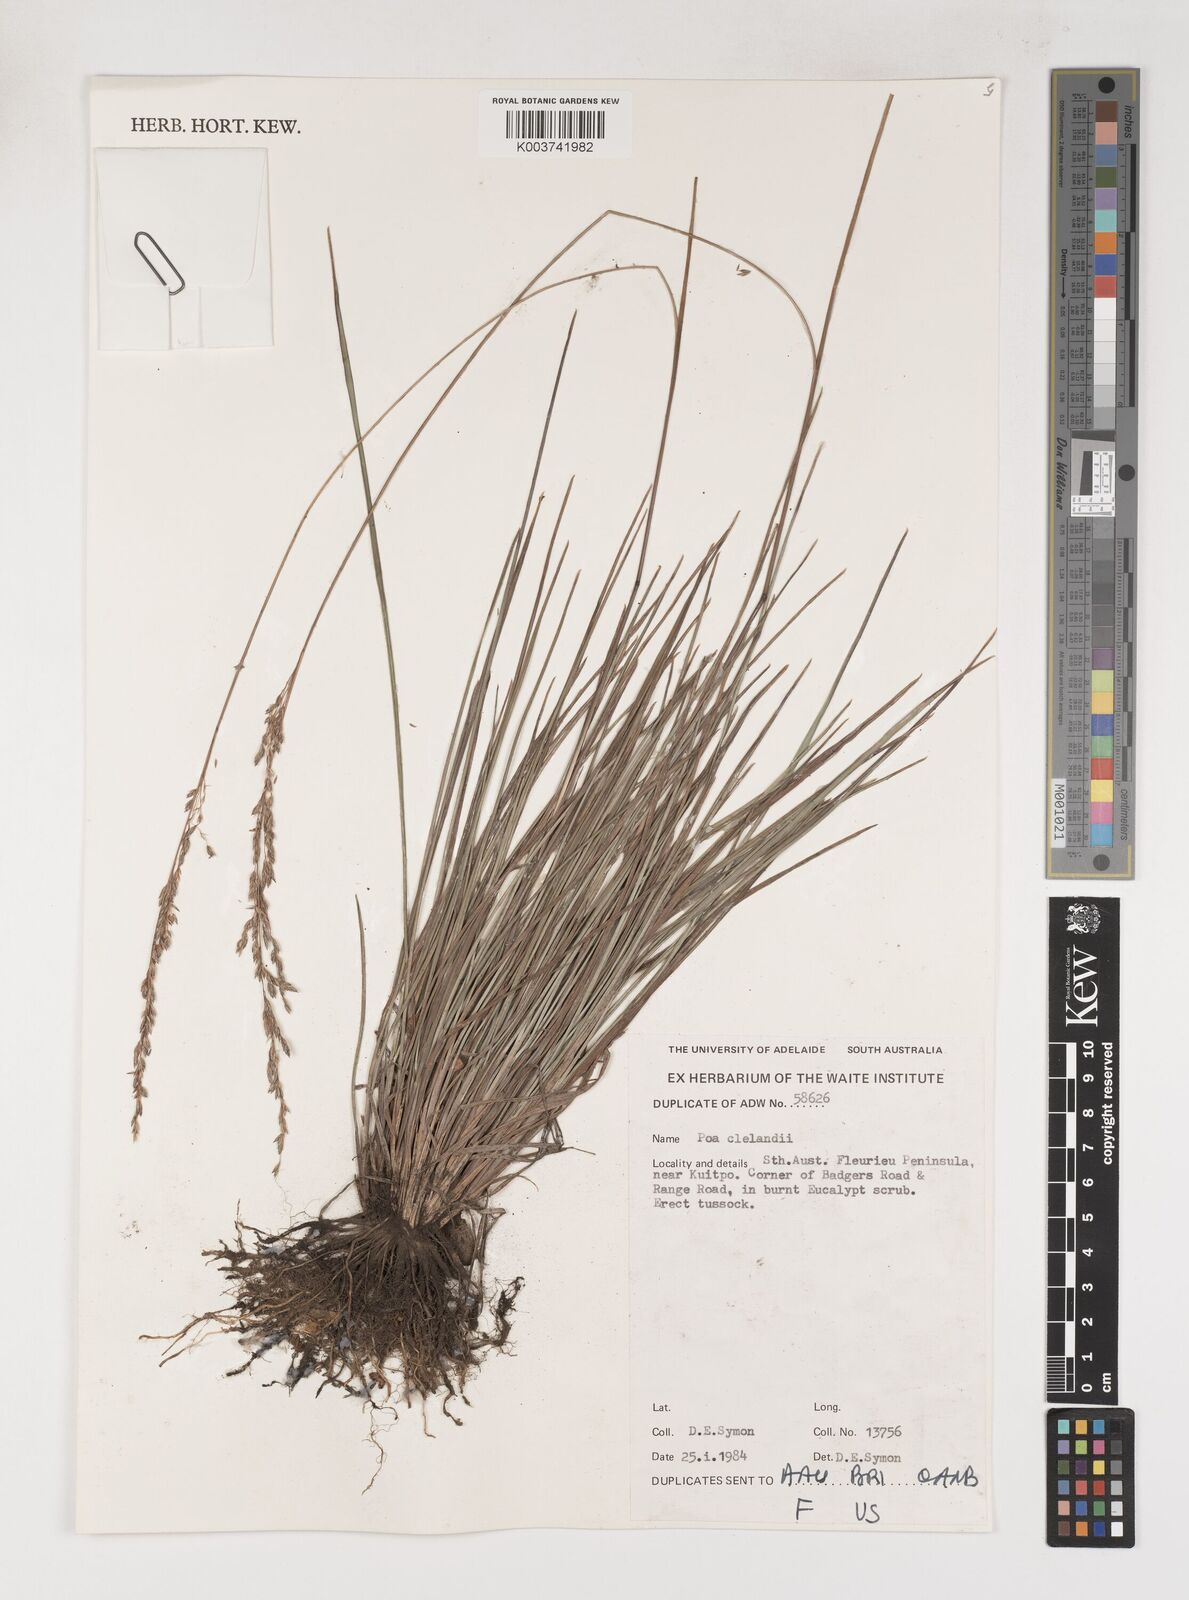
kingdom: Plantae
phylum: Tracheophyta
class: Liliopsida
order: Poales
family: Poaceae
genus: Poa
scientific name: Poa clelandii
